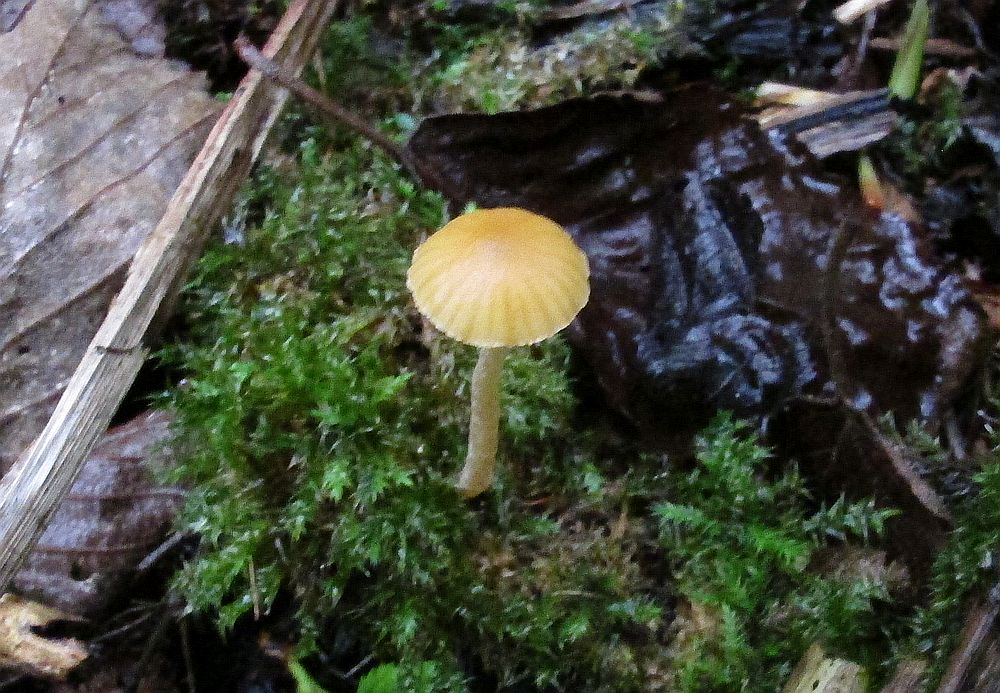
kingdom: Fungi
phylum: Basidiomycota
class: Agaricomycetes
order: Agaricales
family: Hymenogastraceae
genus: Galerina
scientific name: Galerina clavata
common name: kær-hjelmhat
